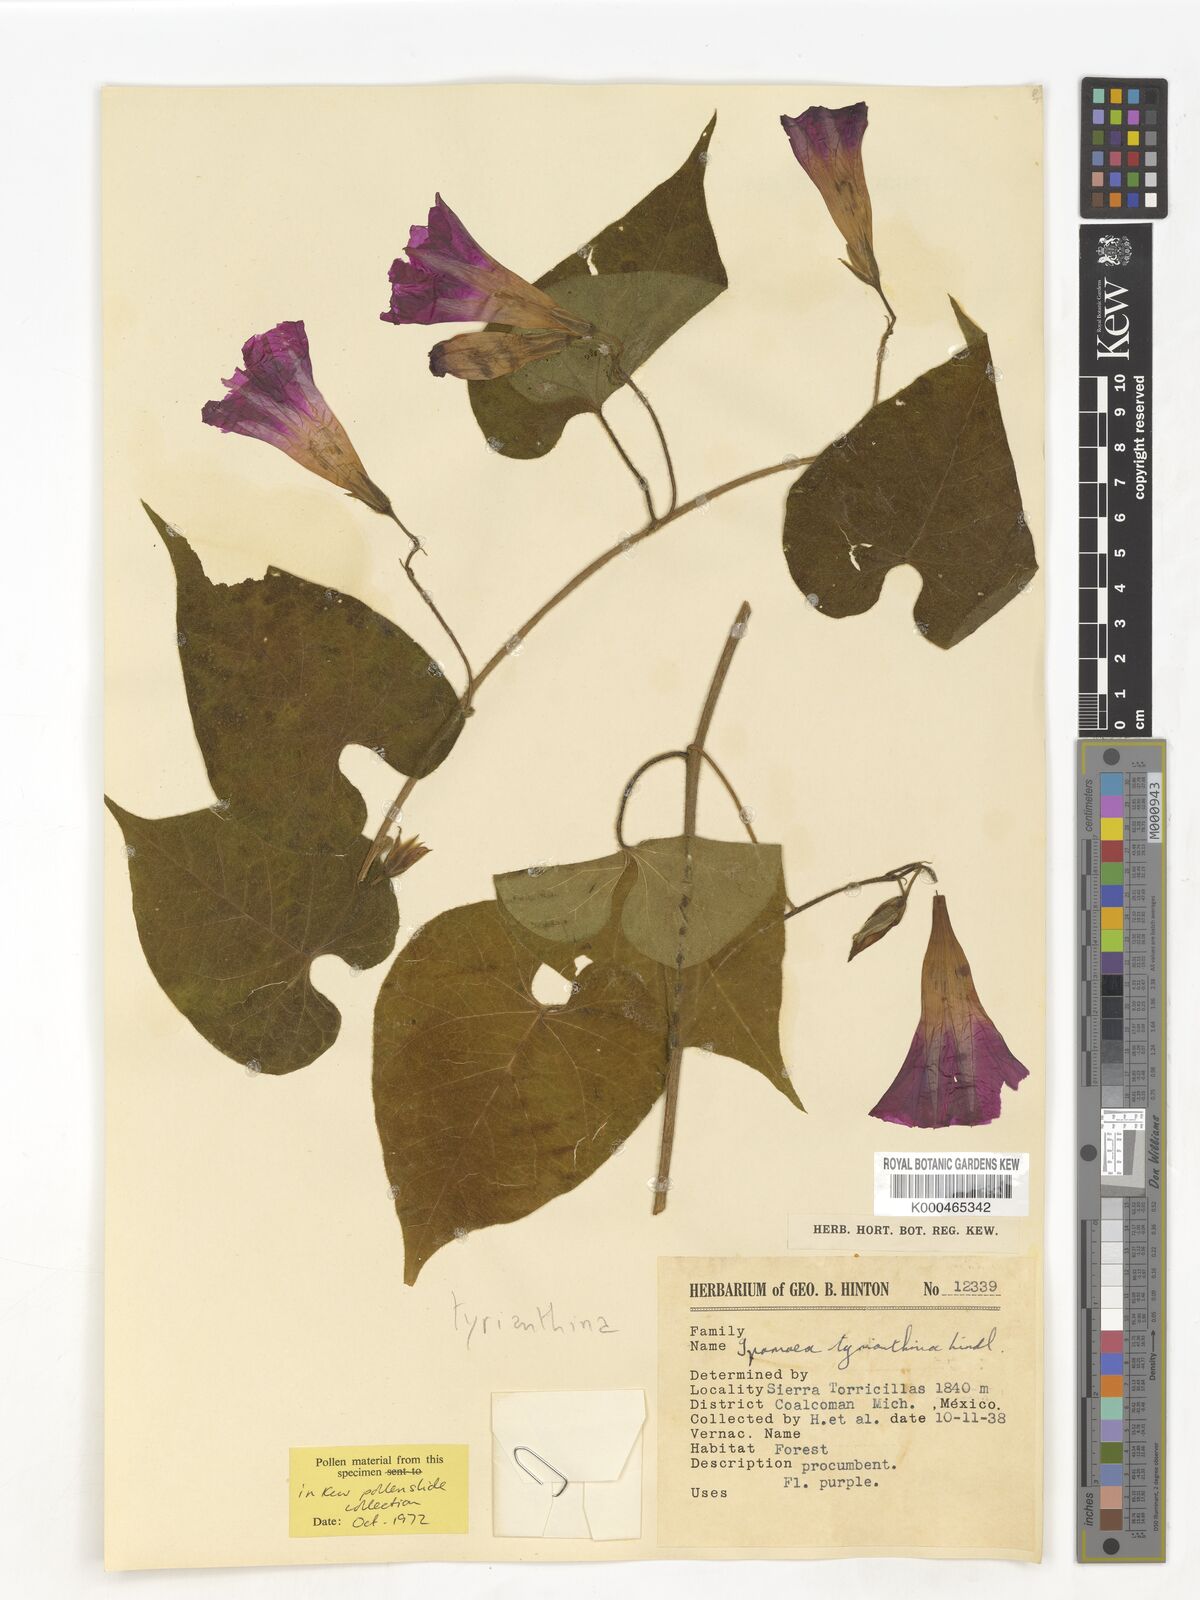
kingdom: Plantae
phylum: Tracheophyta
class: Magnoliopsida
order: Solanales
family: Convolvulaceae
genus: Ipomoea
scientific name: Ipomoea orizabensis
